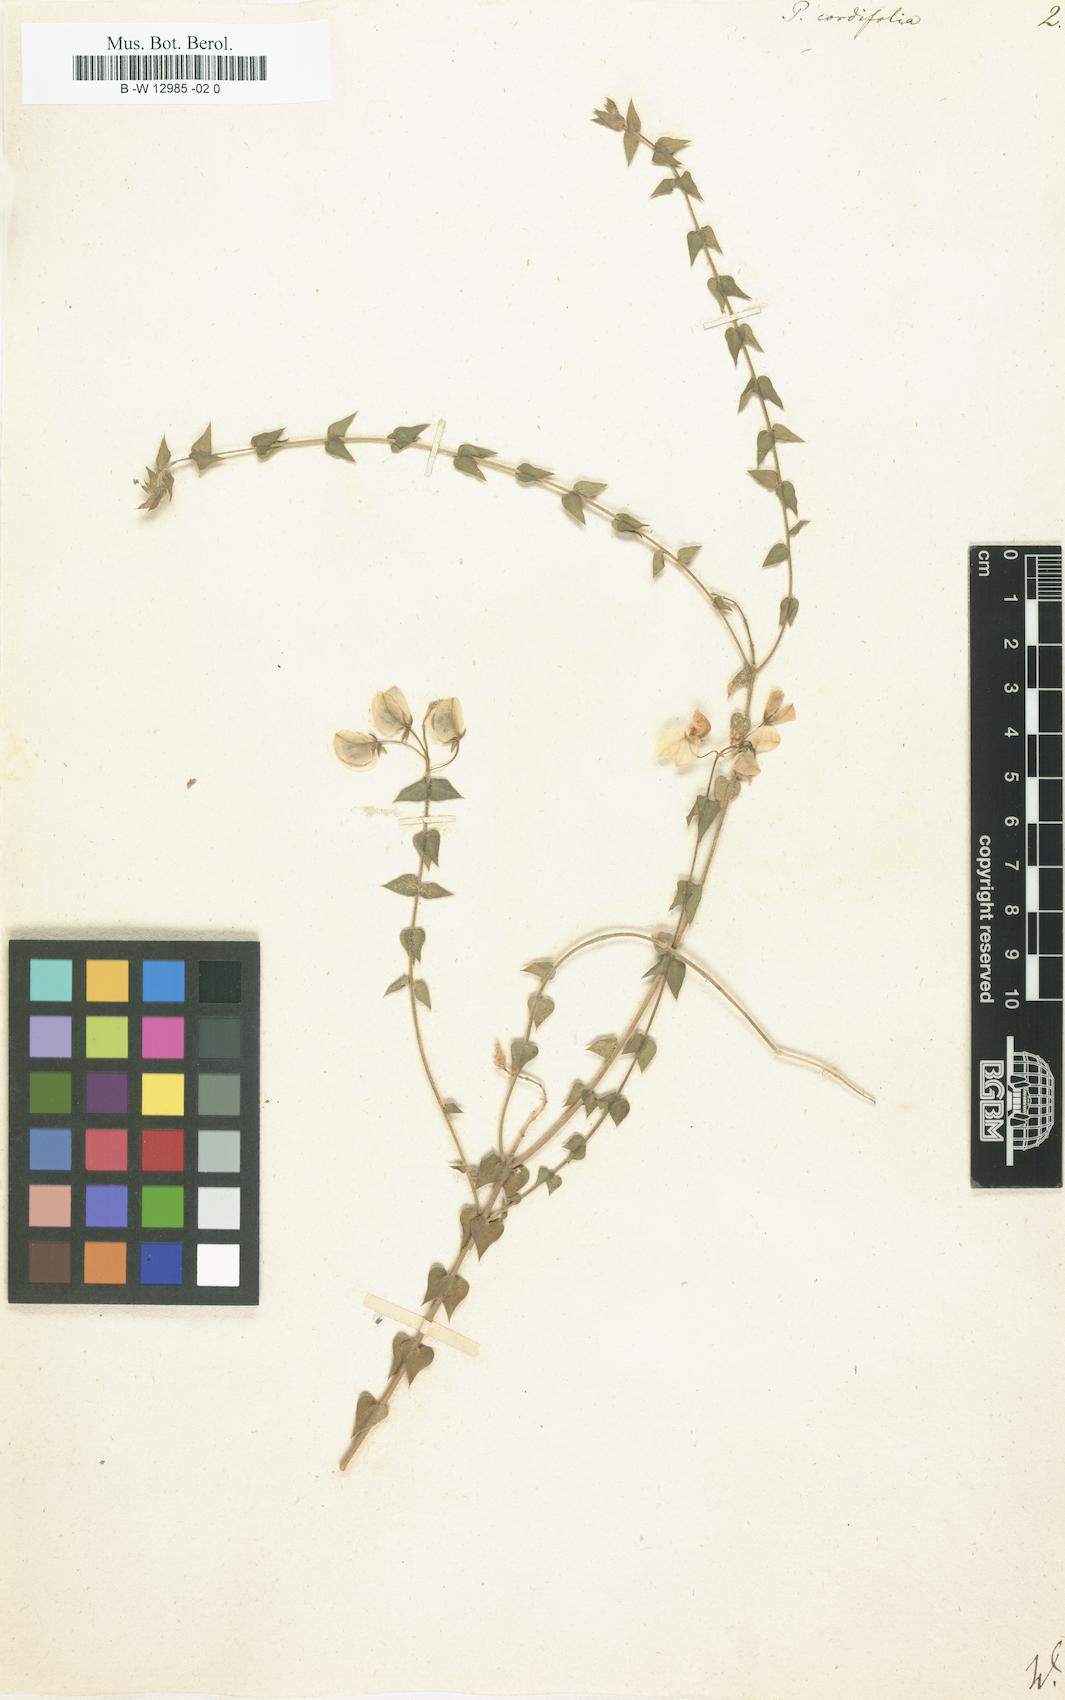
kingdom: Plantae
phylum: Tracheophyta
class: Magnoliopsida
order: Fabales
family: Polygalaceae
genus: Polygala
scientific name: Polygala cordifolia
